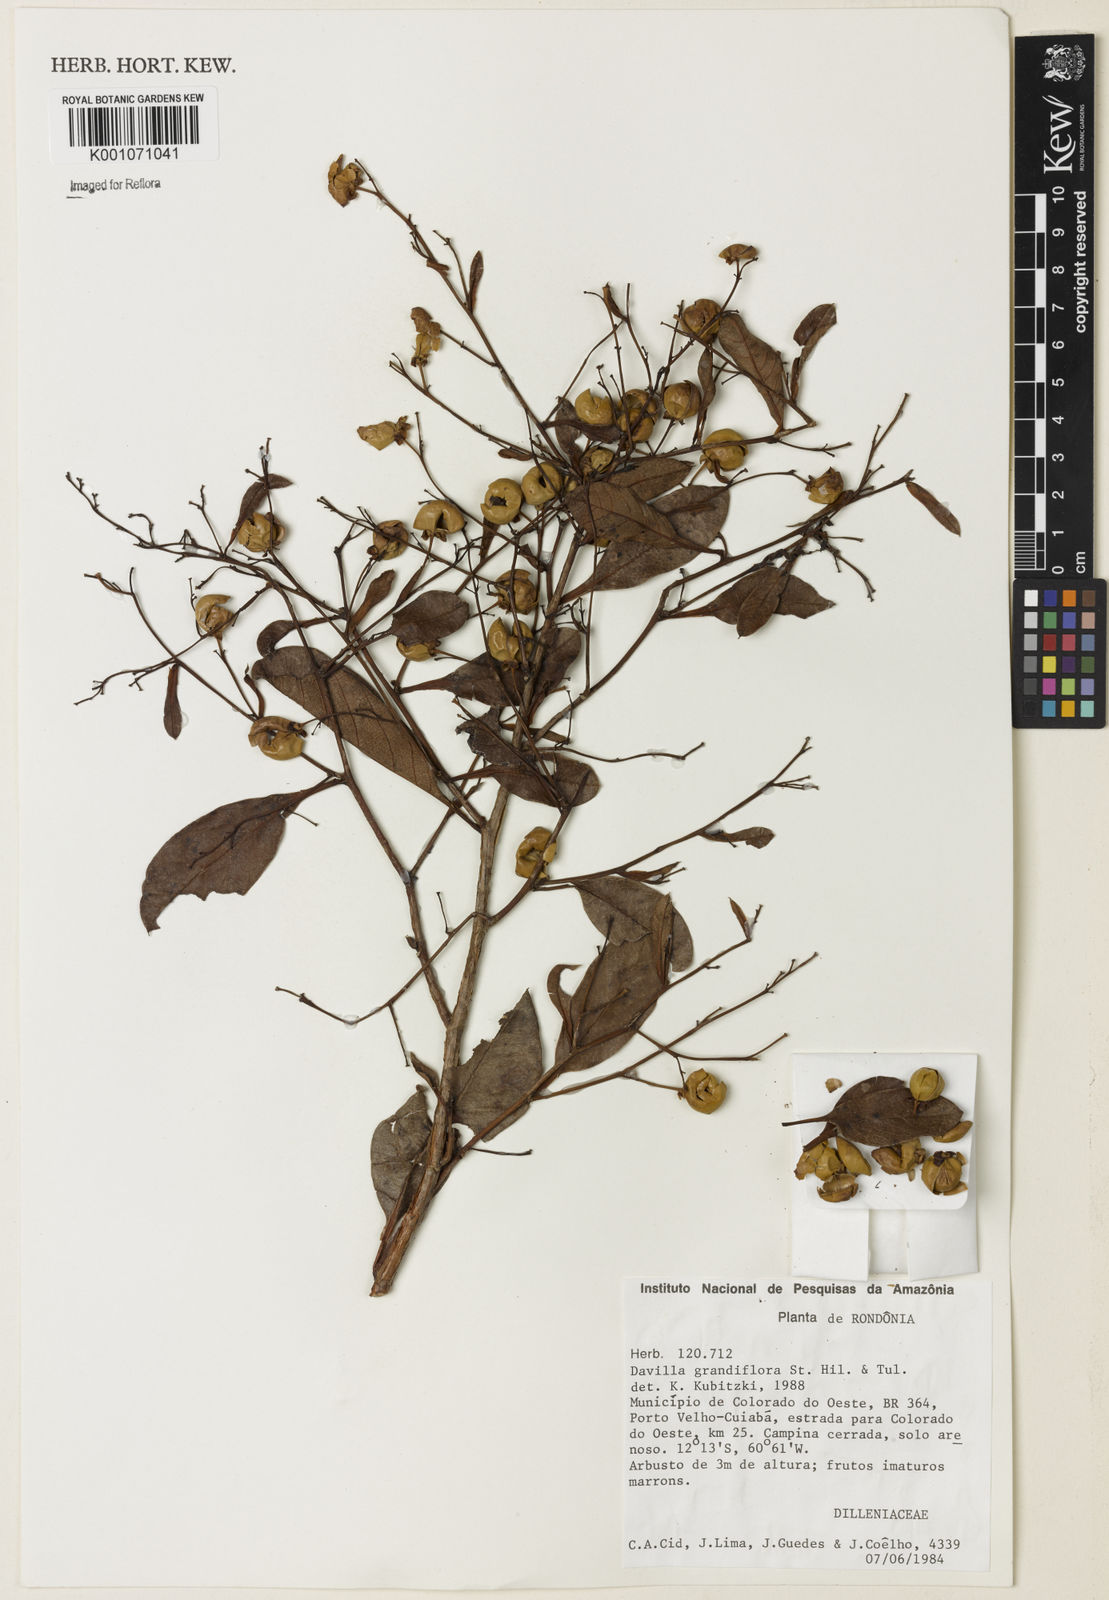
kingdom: Plantae
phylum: Tracheophyta
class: Magnoliopsida
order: Dilleniales
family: Dilleniaceae
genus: Davilla
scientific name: Davilla grandiflora
